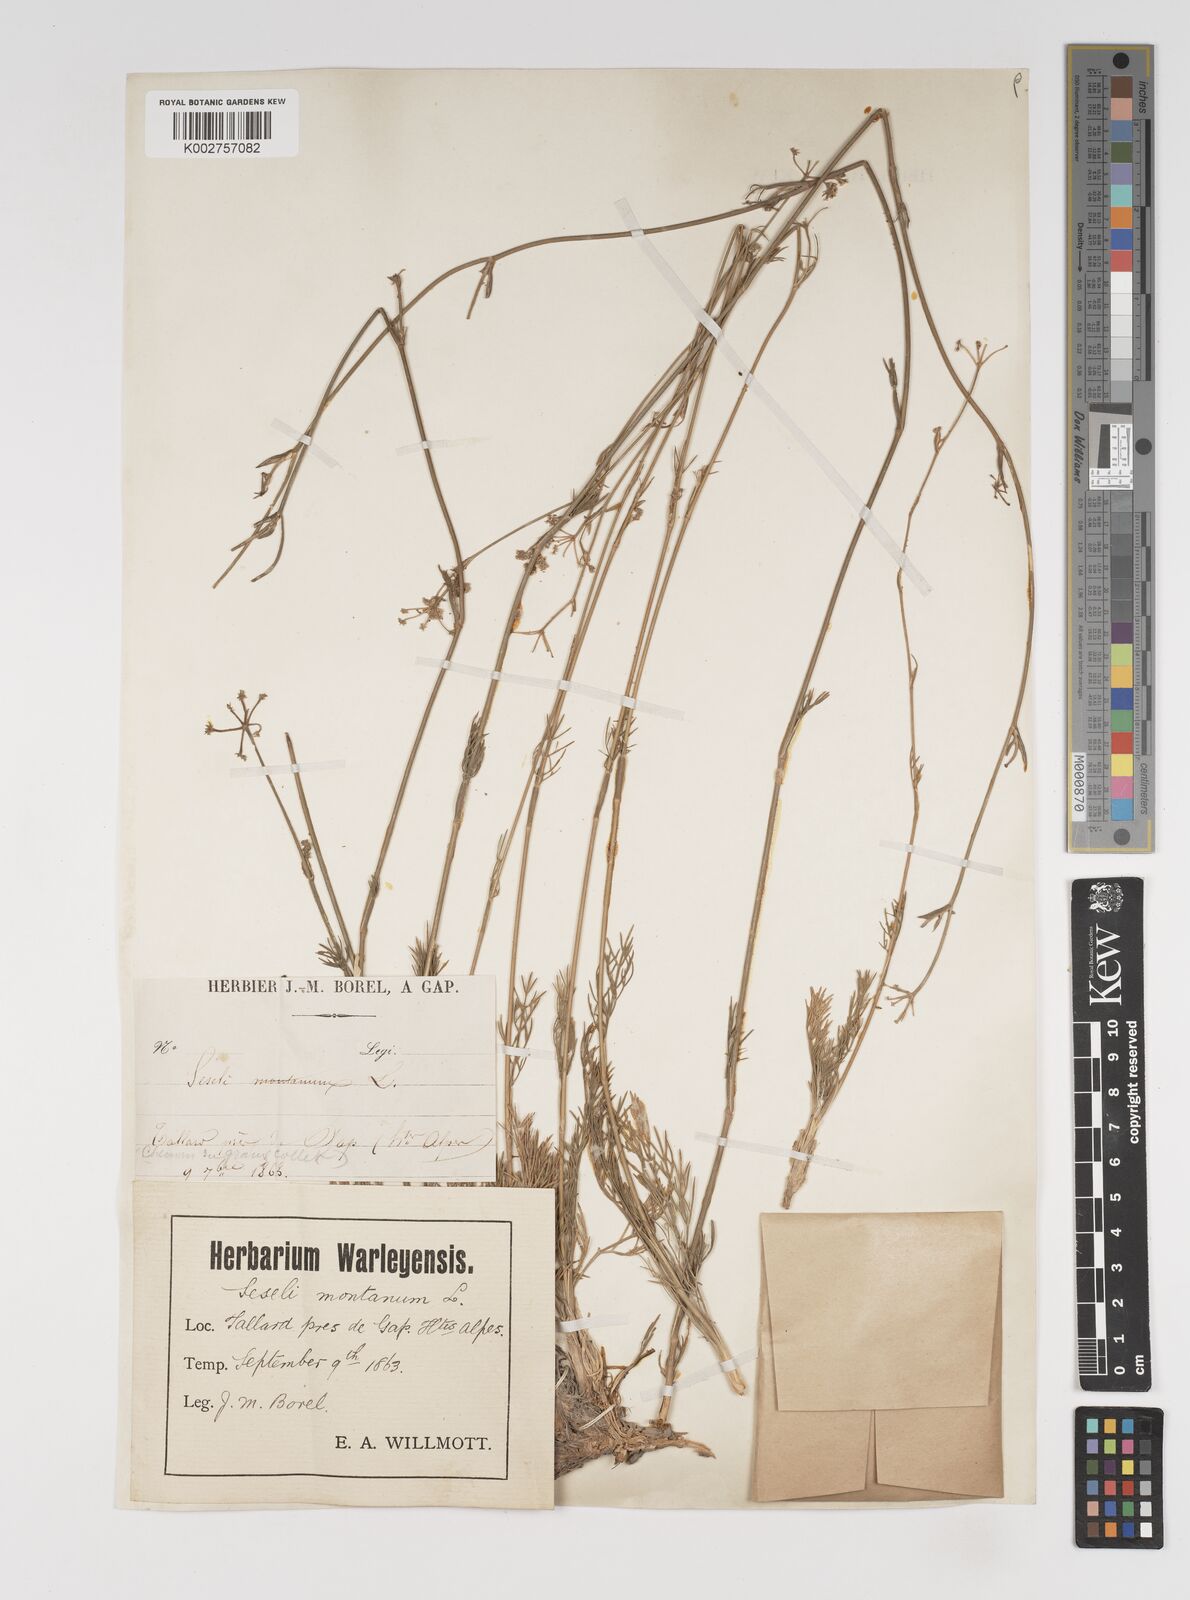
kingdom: Plantae
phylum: Tracheophyta
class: Magnoliopsida
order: Apiales
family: Apiaceae
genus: Seseli
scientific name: Seseli montanum
